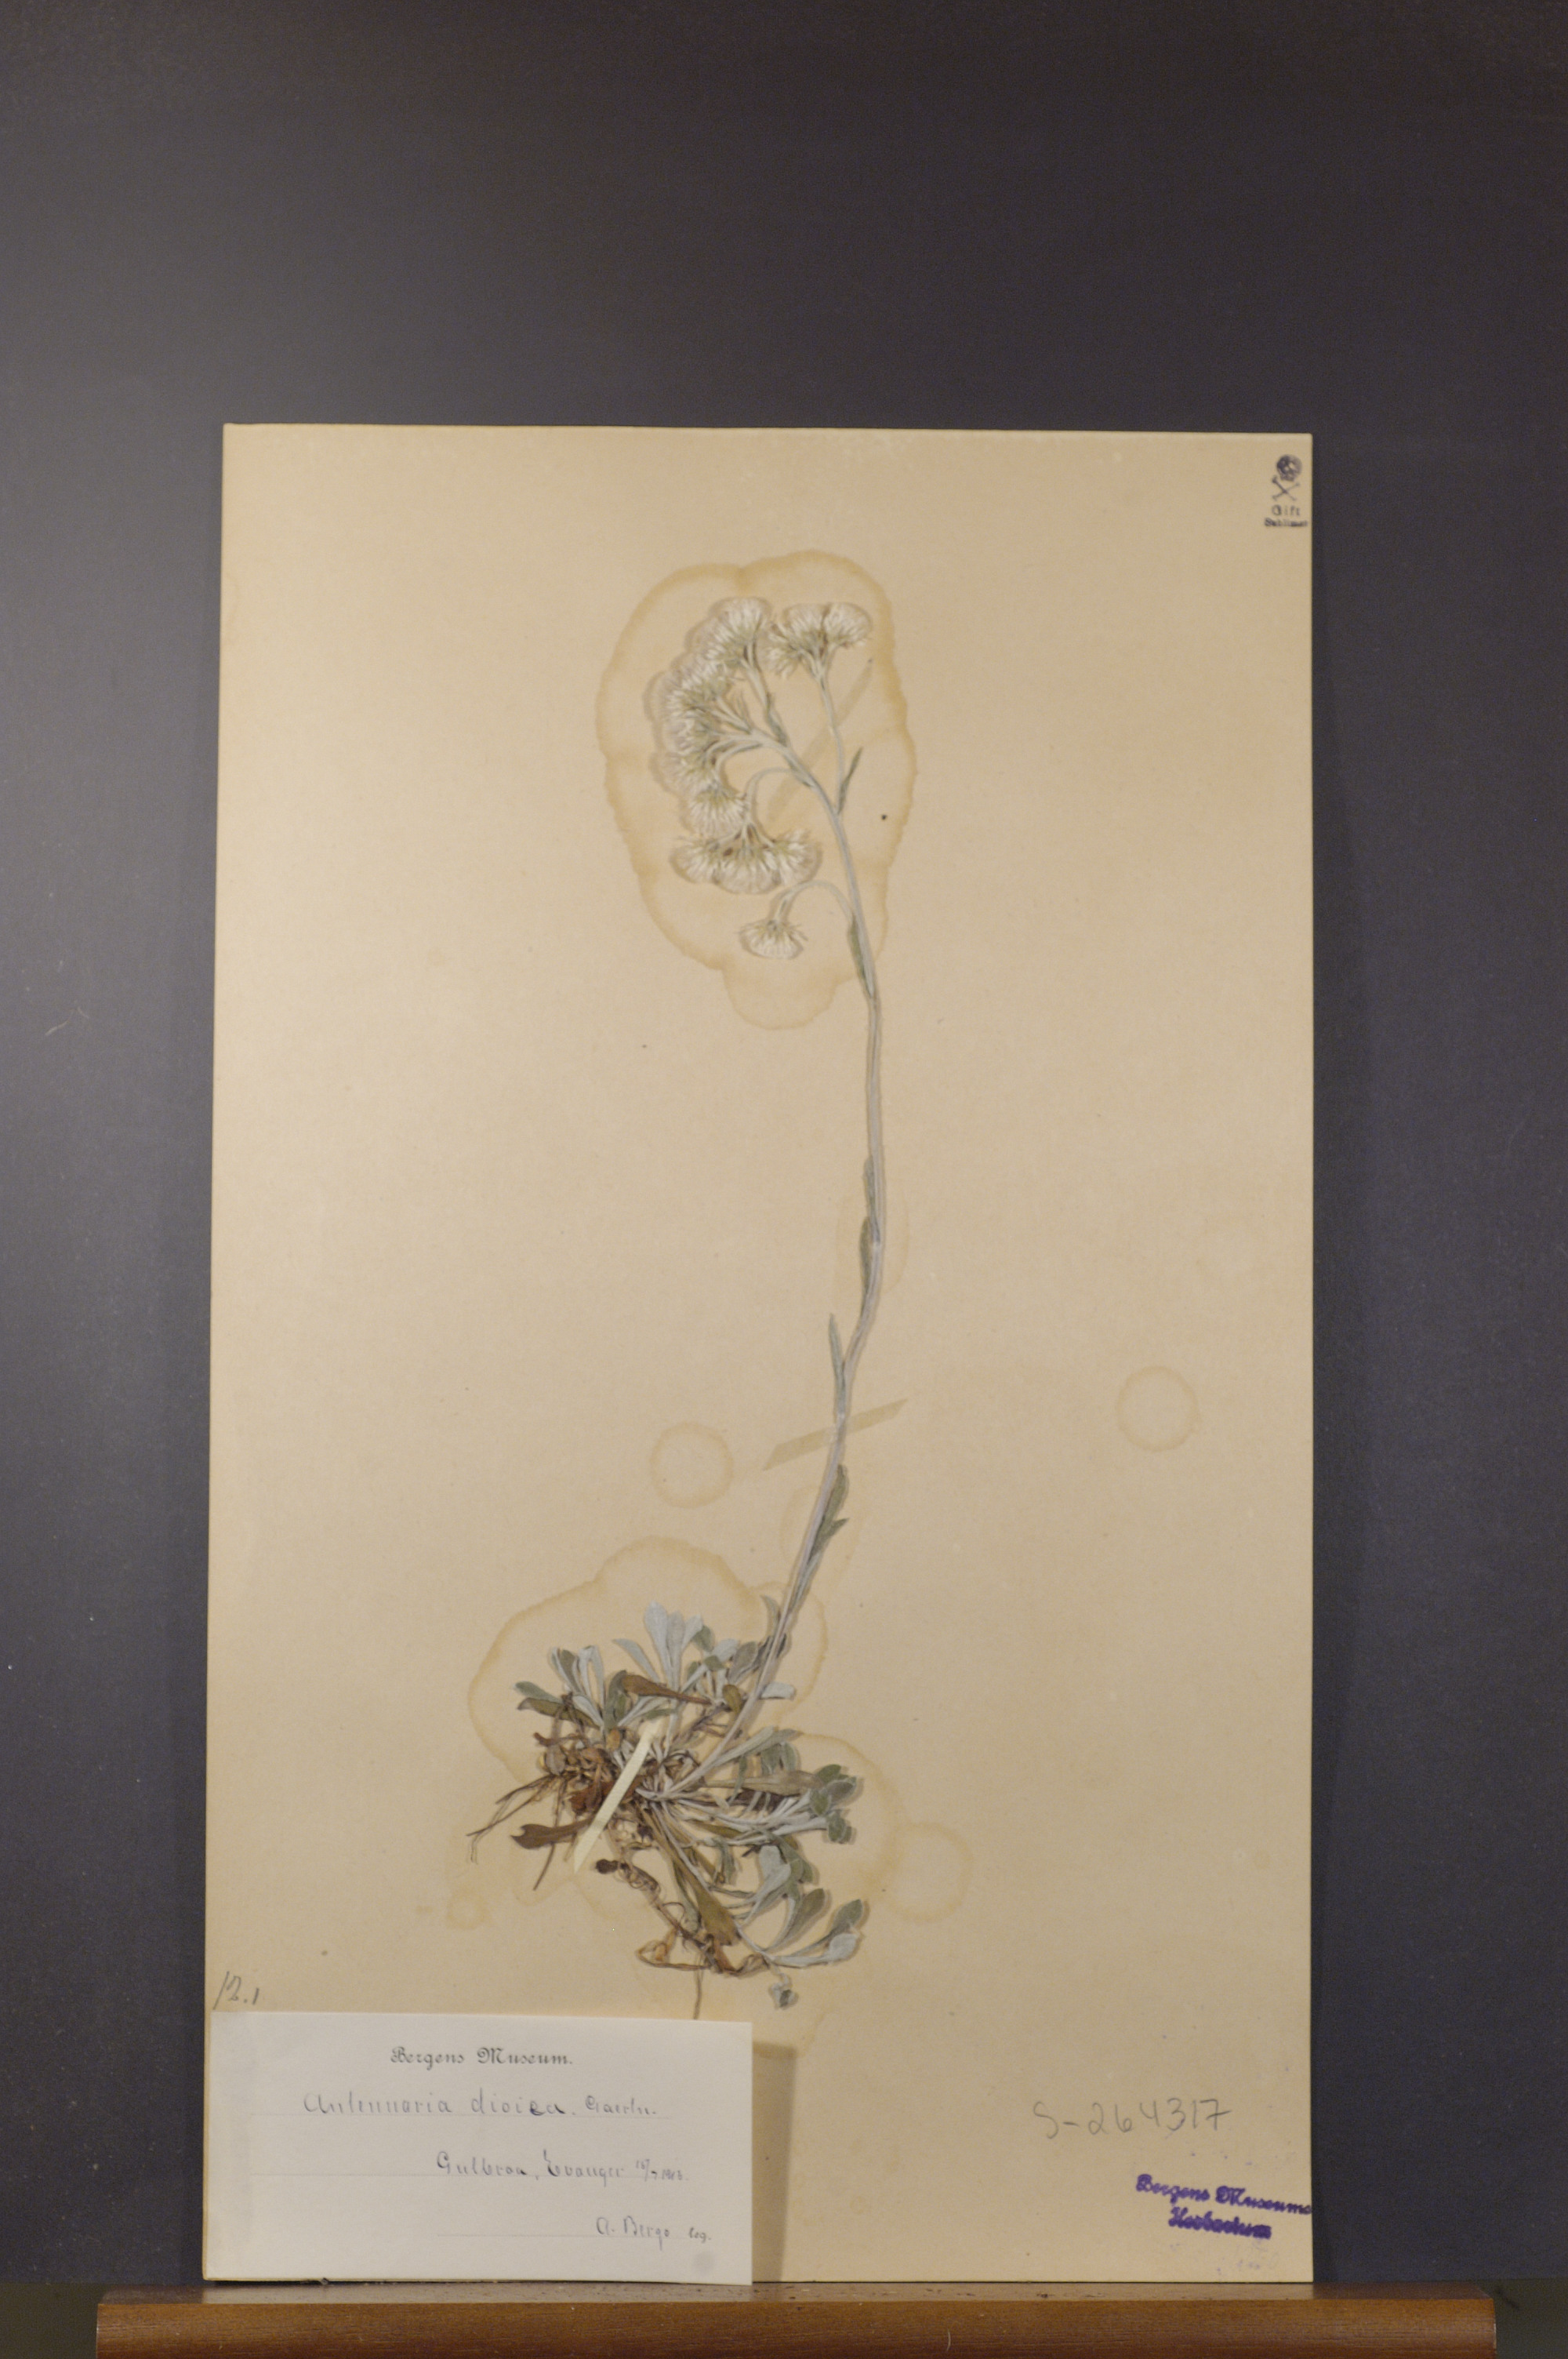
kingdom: Plantae
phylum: Tracheophyta
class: Magnoliopsida
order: Asterales
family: Asteraceae
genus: Antennaria
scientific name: Antennaria dioica
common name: Mountain everlasting
